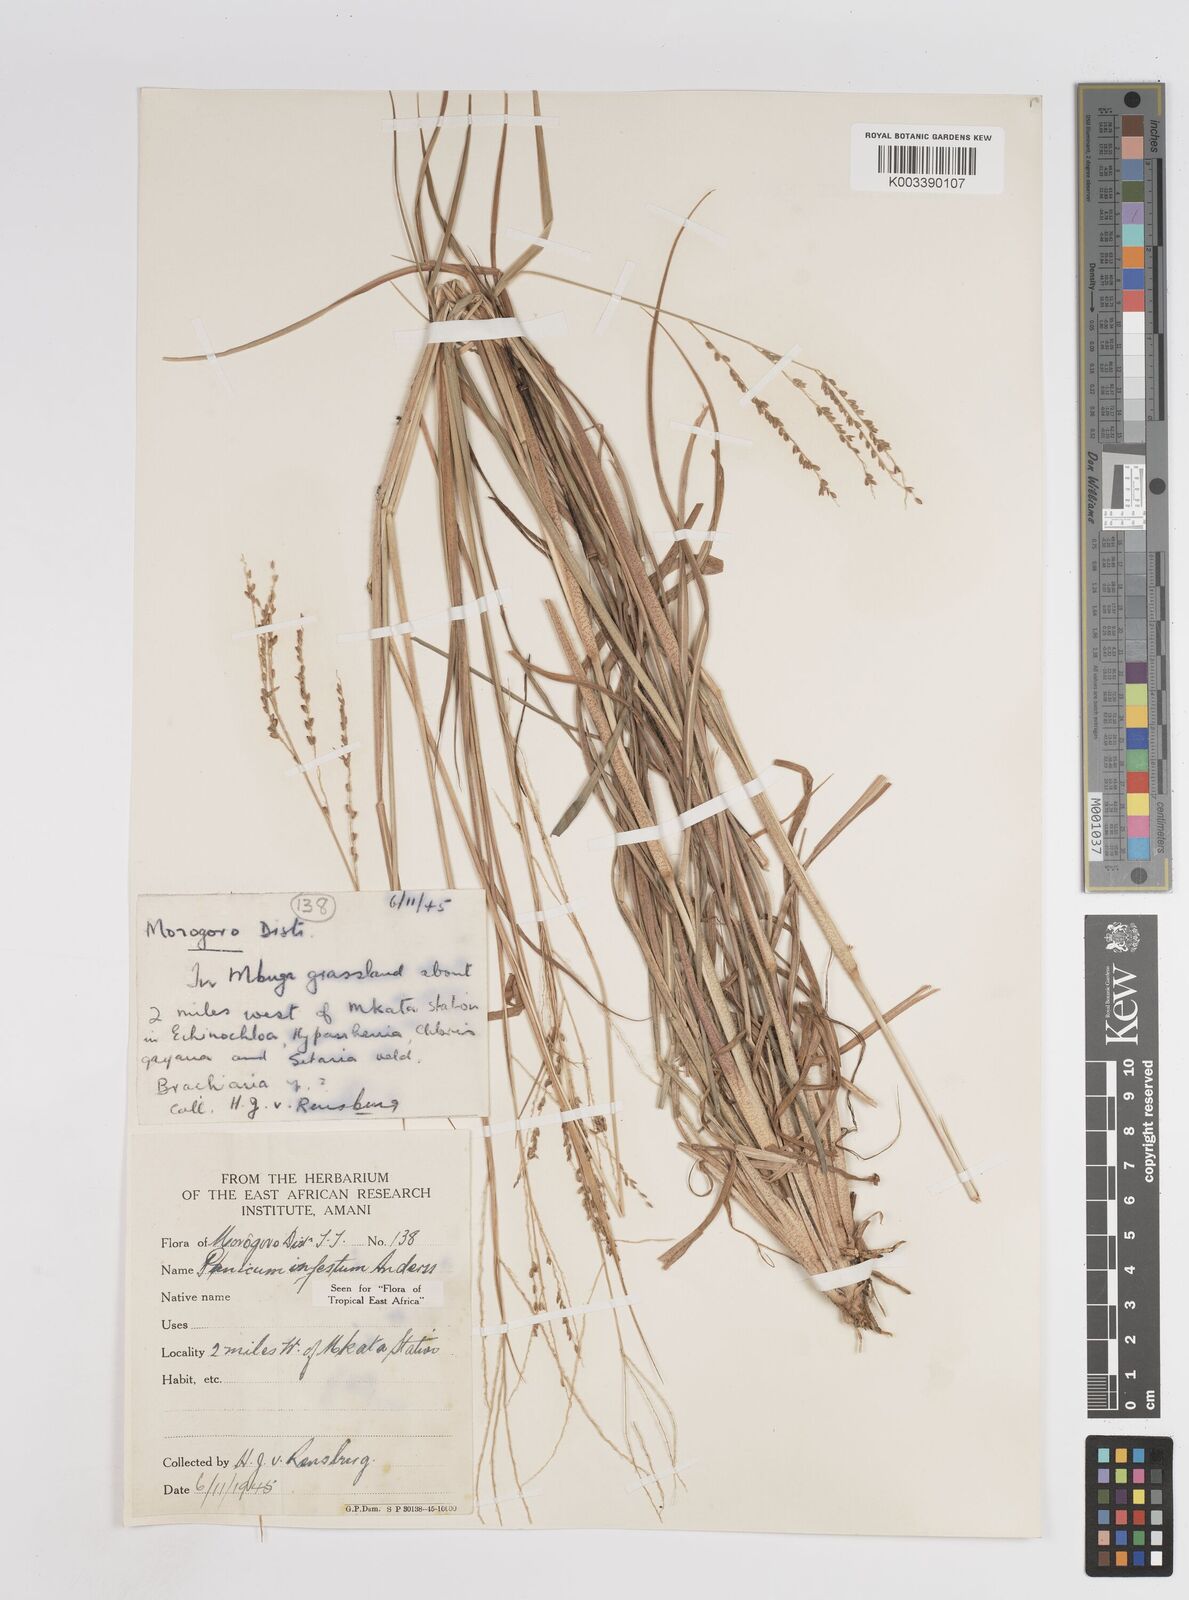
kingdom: Plantae
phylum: Tracheophyta
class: Liliopsida
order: Poales
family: Poaceae
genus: Megathyrsus
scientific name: Megathyrsus infestus
